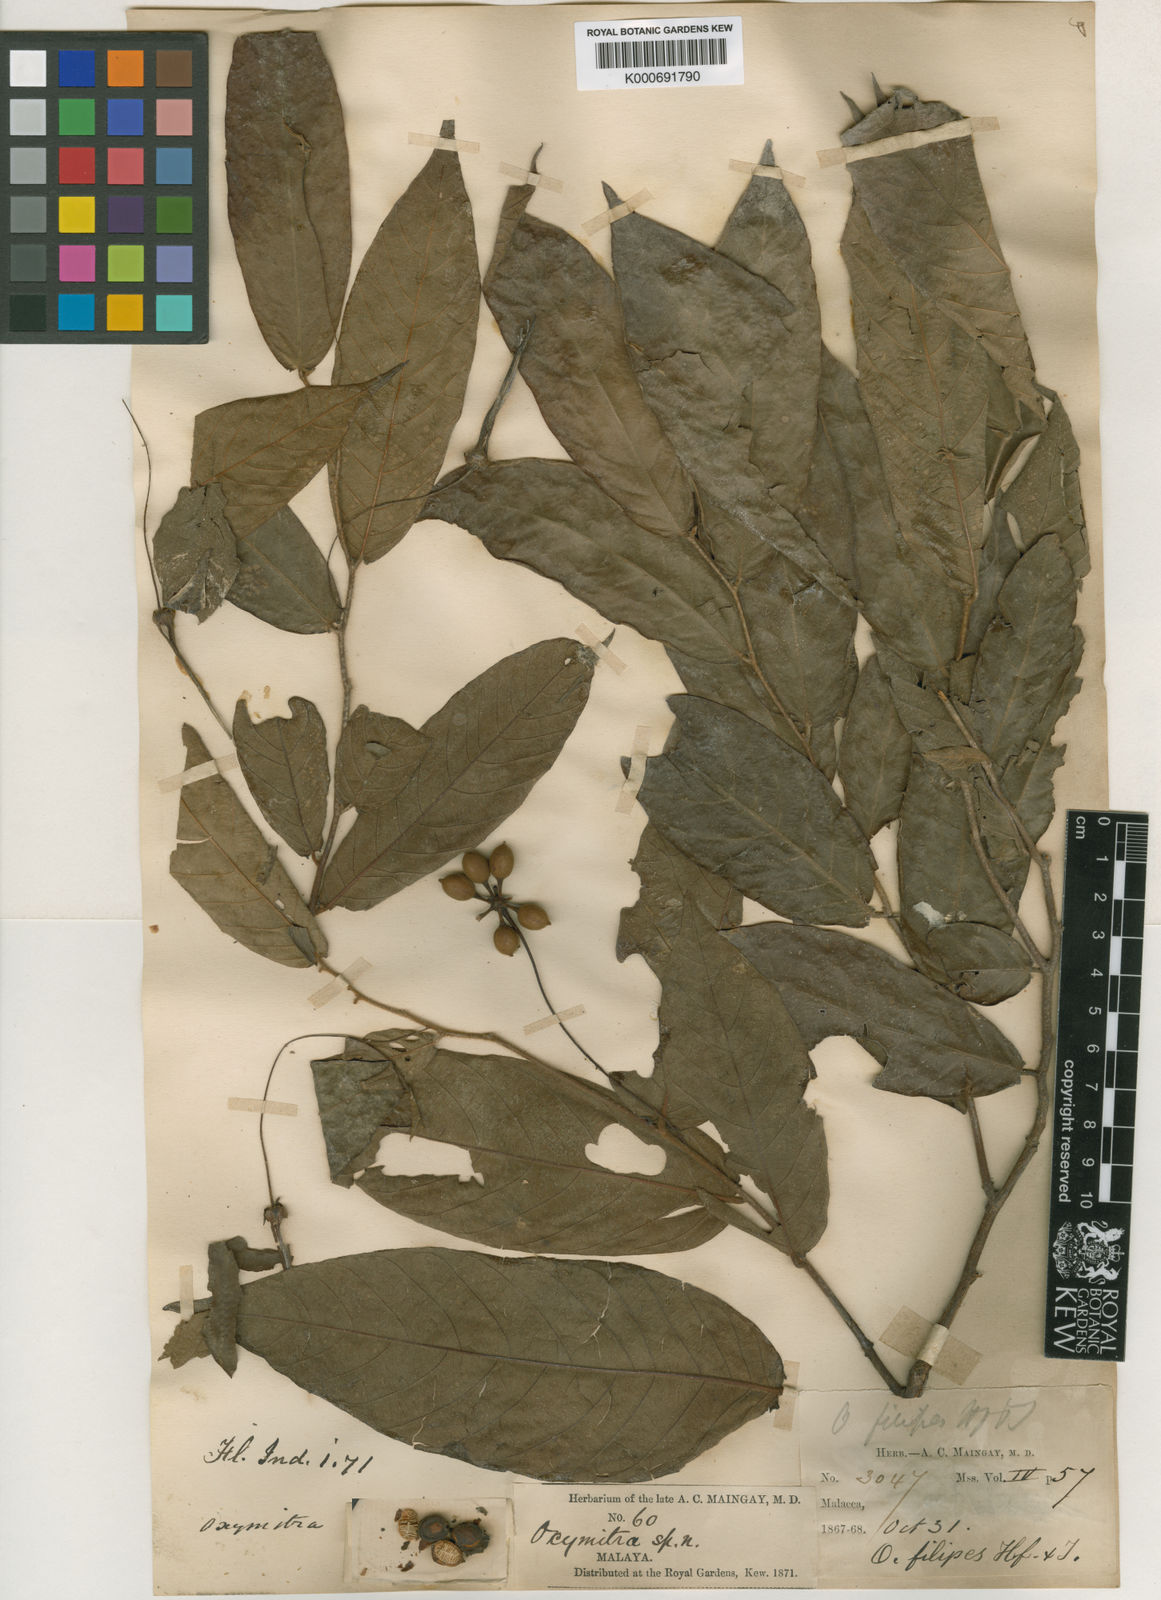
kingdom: Plantae
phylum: Tracheophyta
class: Magnoliopsida
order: Magnoliales
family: Annonaceae
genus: Friesodielsia
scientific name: Friesodielsia filipes
